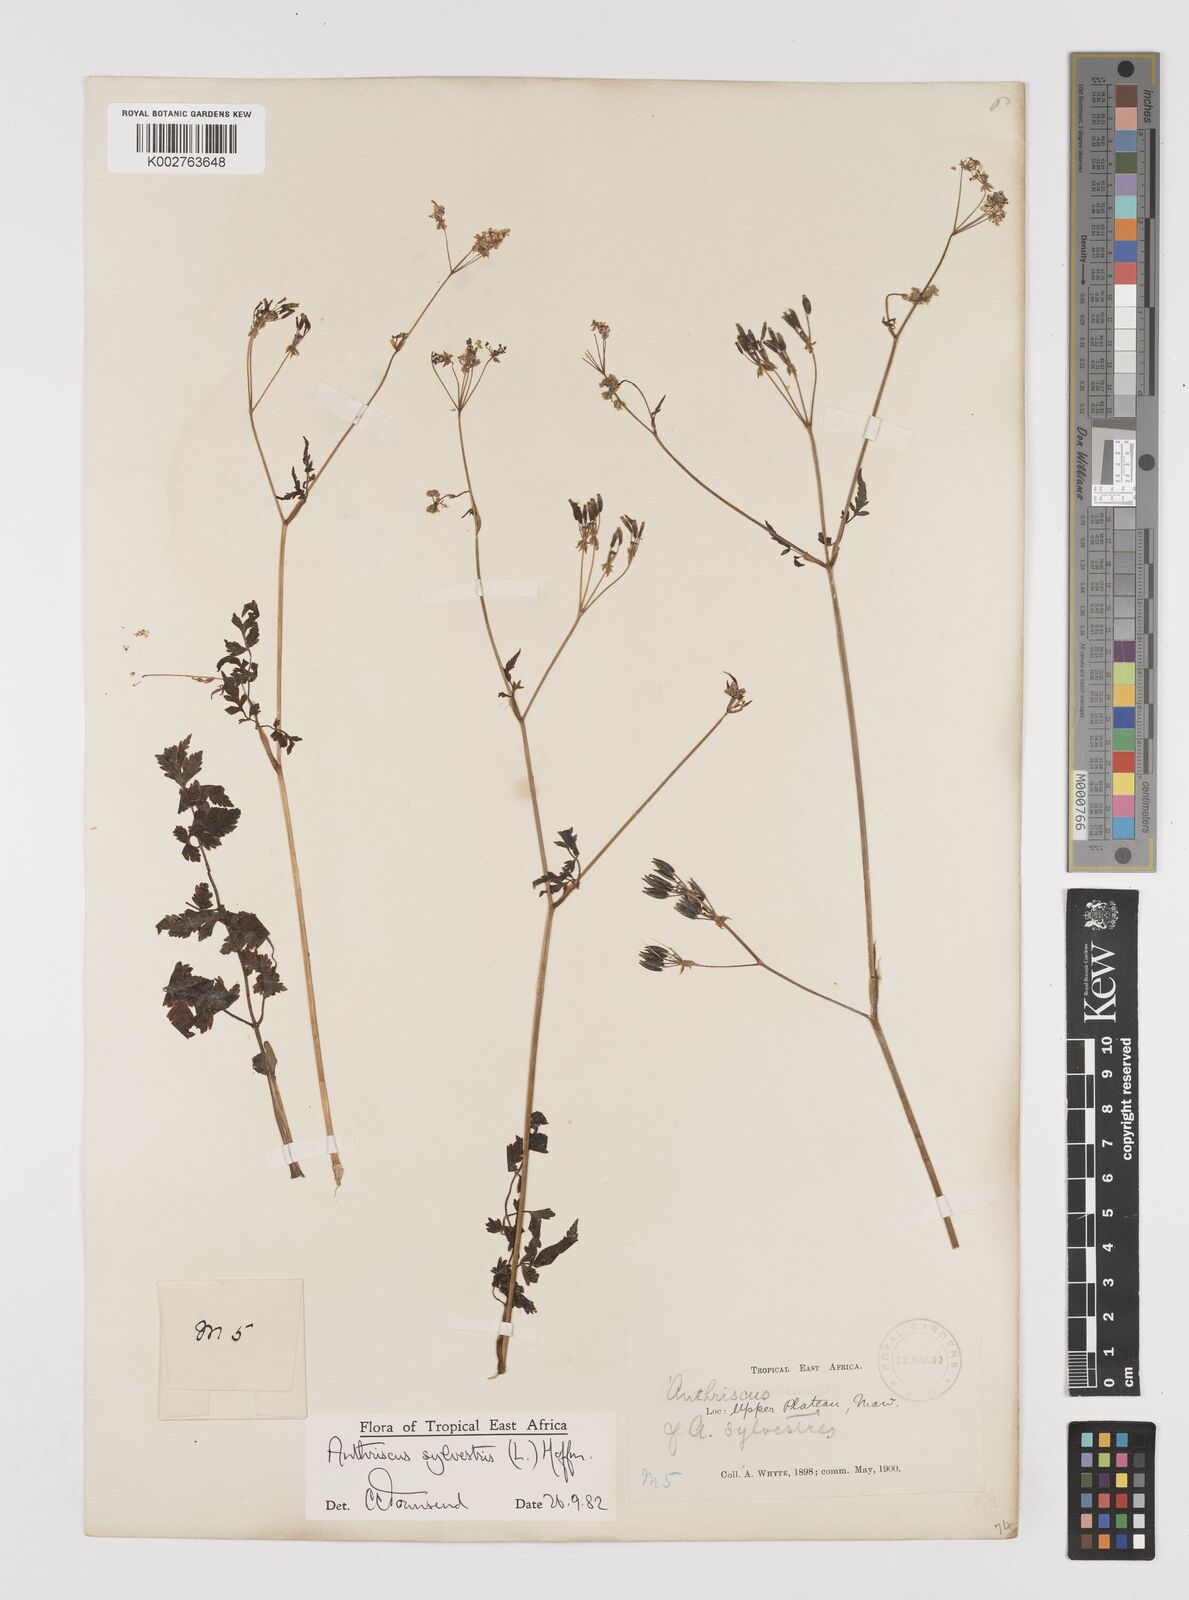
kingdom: Plantae
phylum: Tracheophyta
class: Magnoliopsida
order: Apiales
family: Apiaceae
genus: Anthriscus
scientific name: Anthriscus sylvestris
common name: Cow parsley
